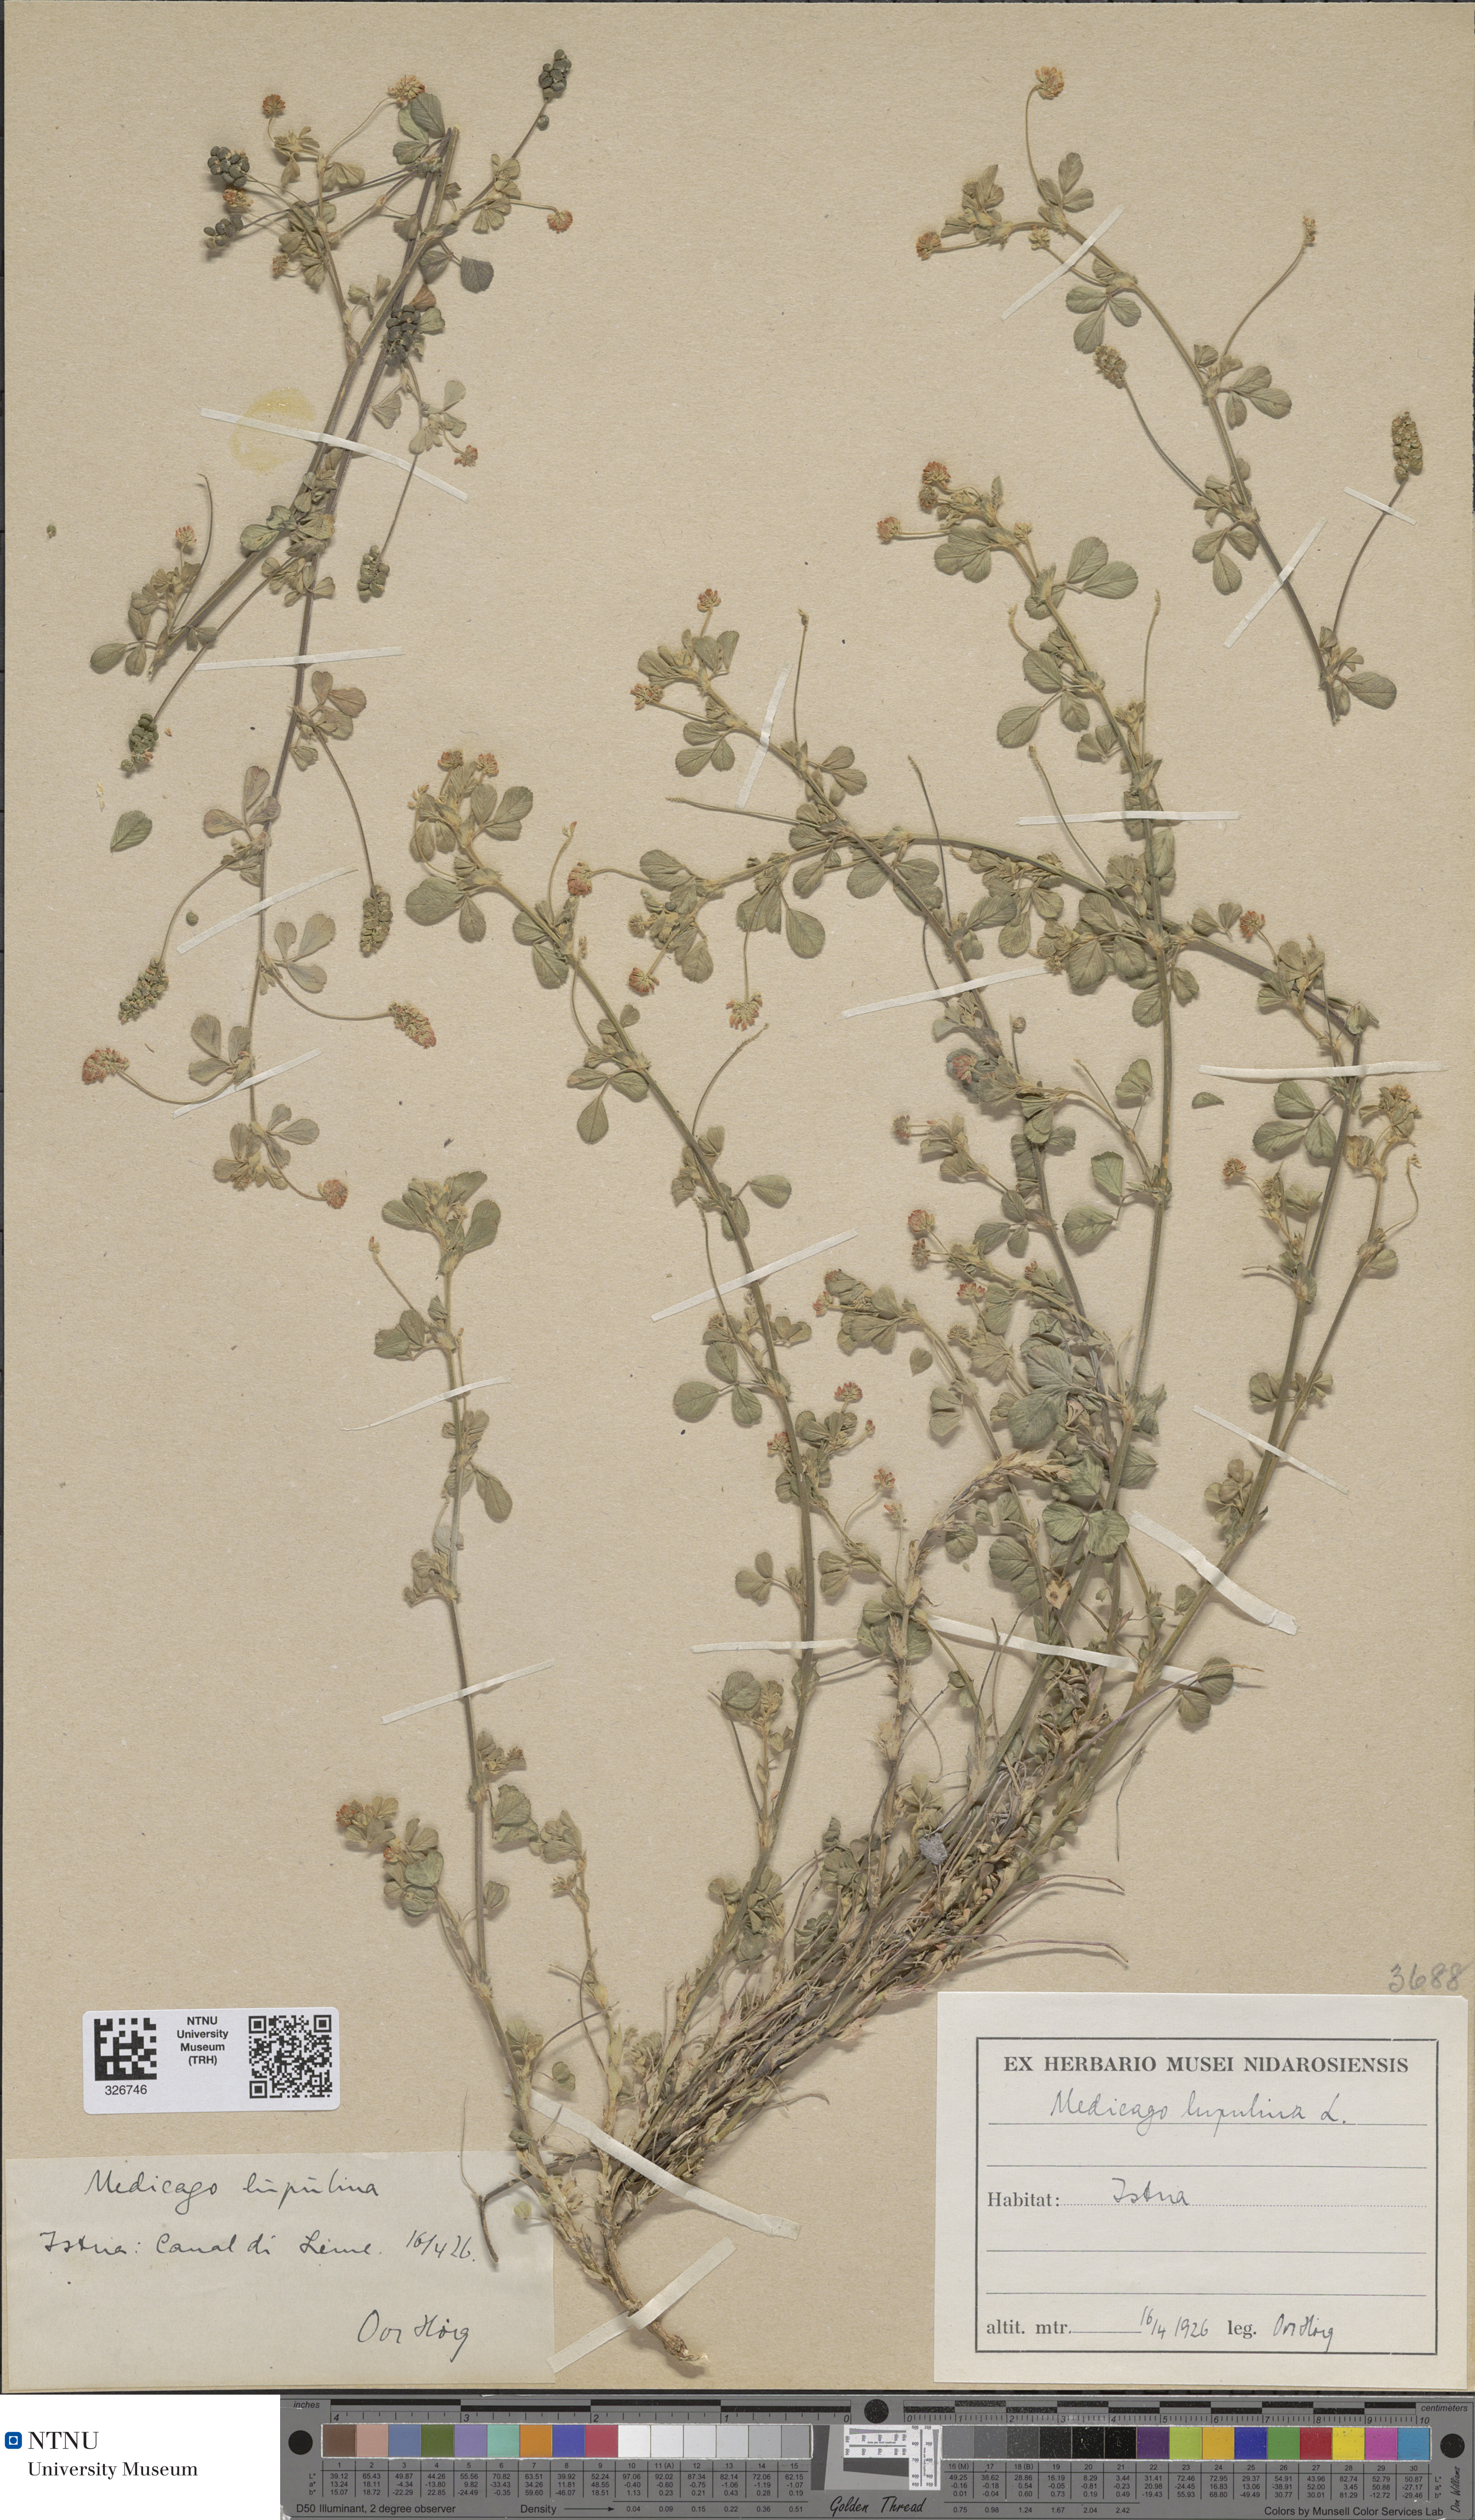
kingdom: Plantae
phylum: Tracheophyta
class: Magnoliopsida
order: Fabales
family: Fabaceae
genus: Medicago
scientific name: Medicago lupulina
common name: Black medick
